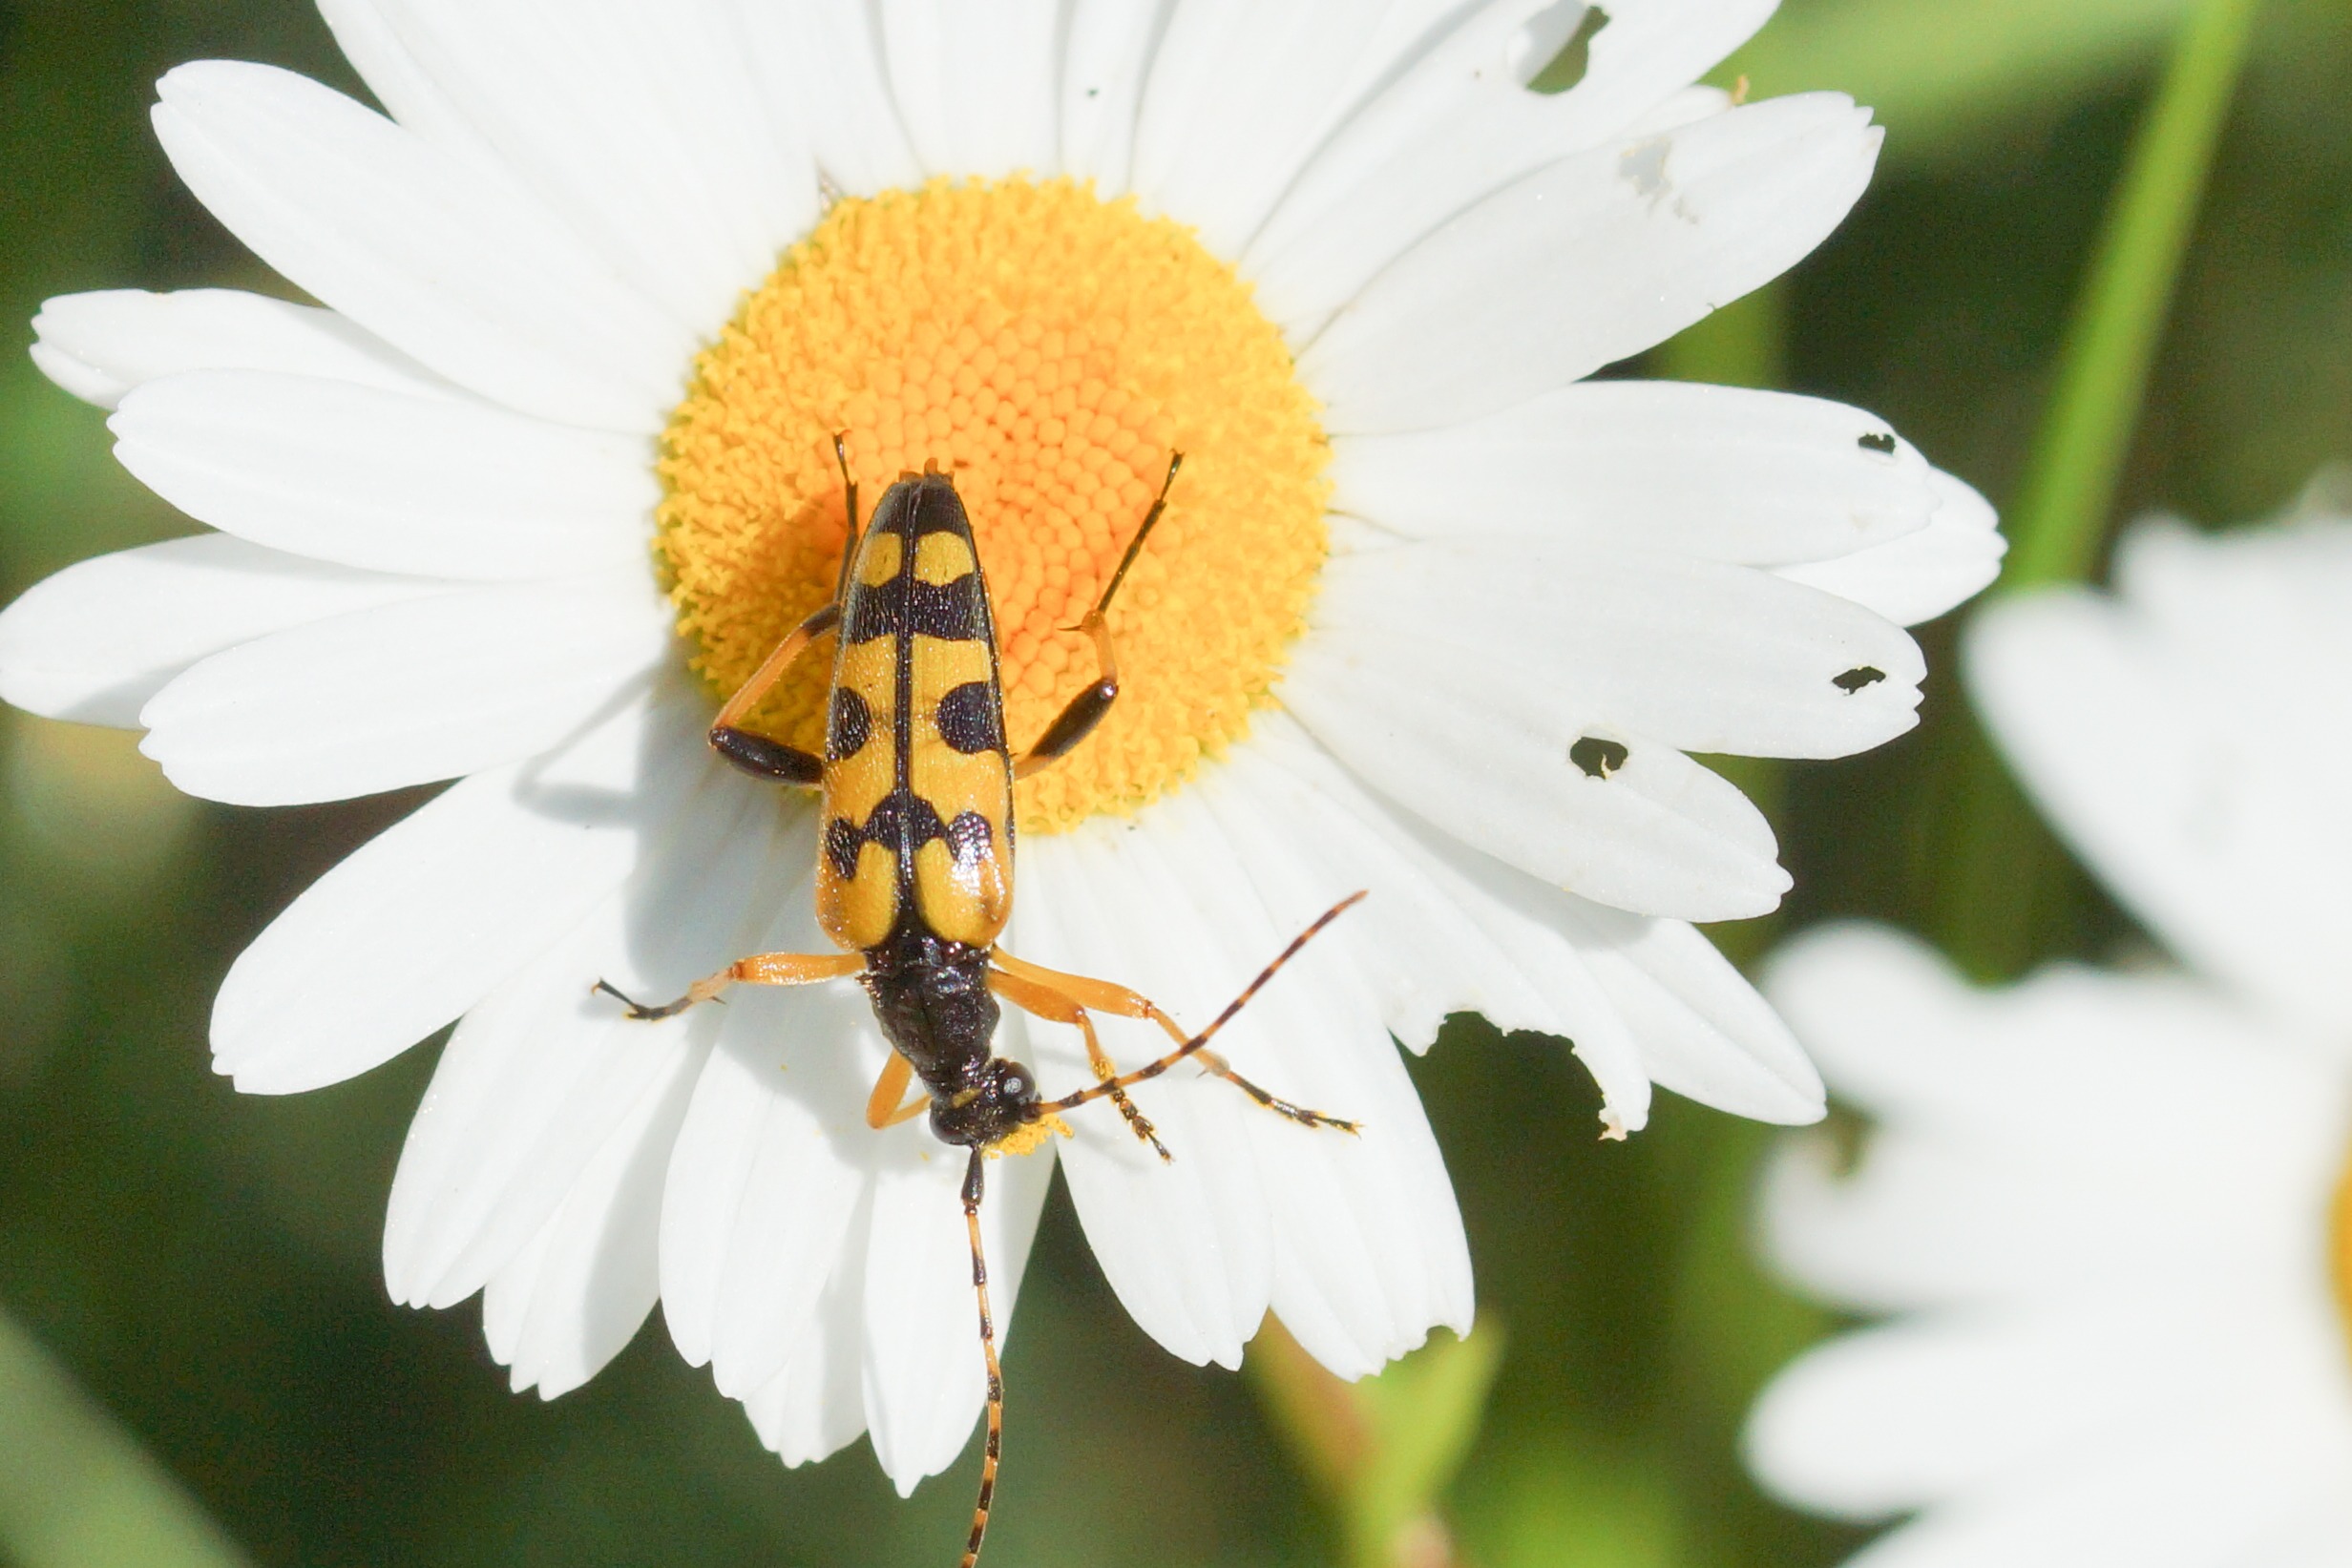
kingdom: Animalia
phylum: Arthropoda
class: Insecta
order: Coleoptera
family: Cerambycidae
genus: Rutpela
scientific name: Rutpela maculata
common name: Sydlig blomsterbuk
